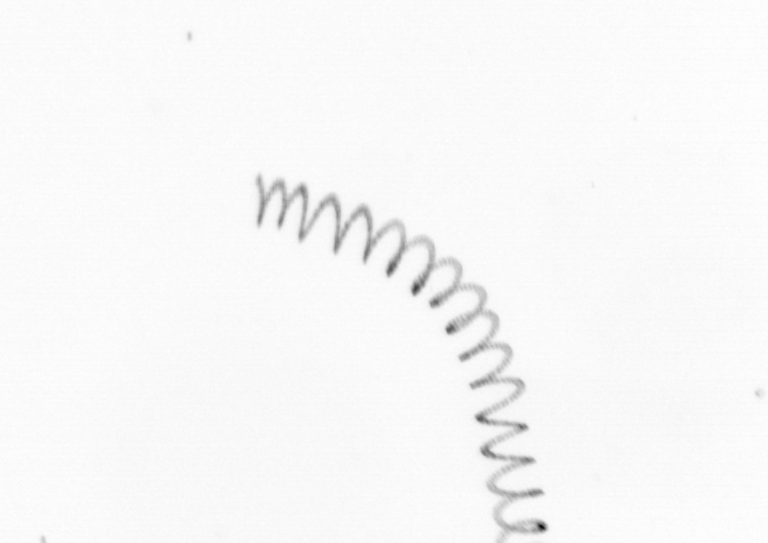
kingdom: Chromista
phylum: Ochrophyta
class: Bacillariophyceae
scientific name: Bacillariophyceae
